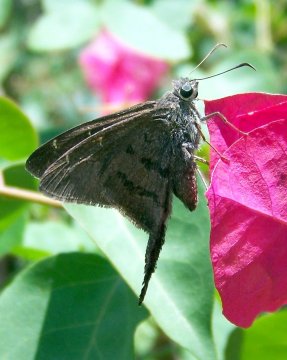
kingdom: Animalia
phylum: Arthropoda
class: Insecta
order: Lepidoptera
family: Hesperiidae
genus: Urbanus
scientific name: Urbanus procne
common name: Brown Longtail
